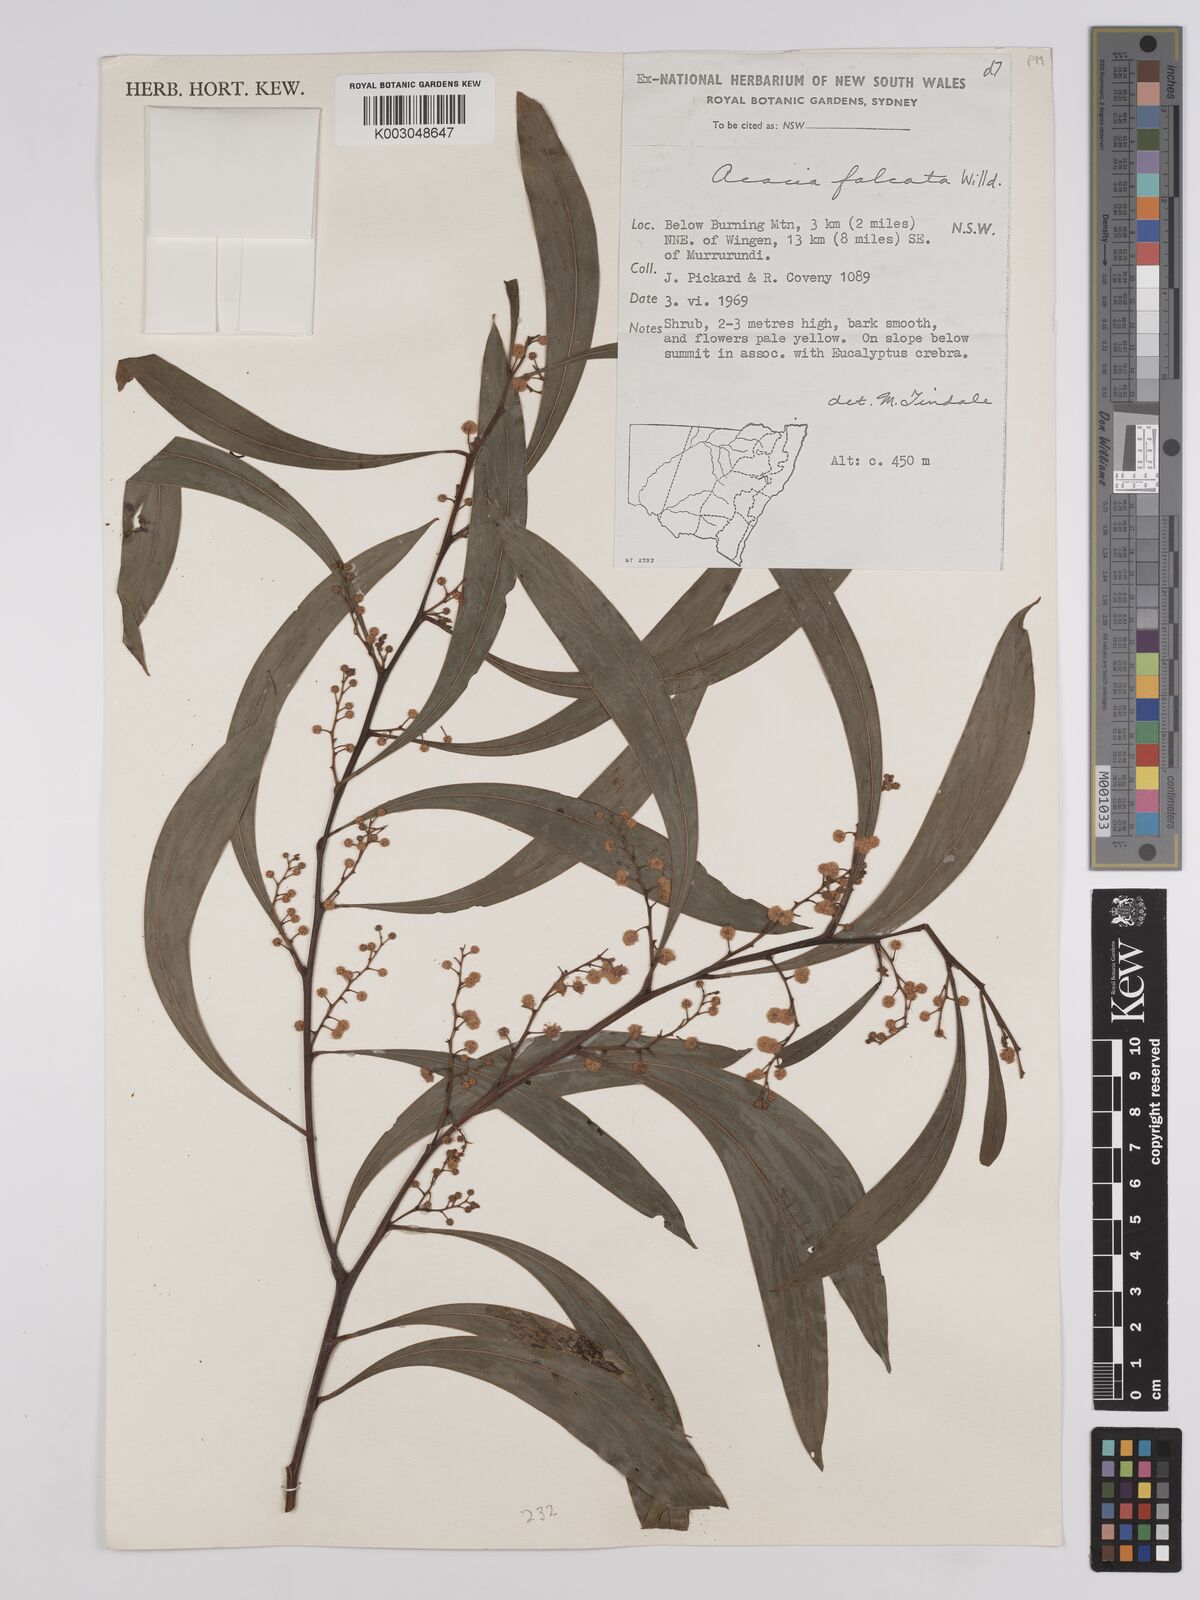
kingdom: Plantae
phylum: Tracheophyta
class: Magnoliopsida
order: Fabales
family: Fabaceae
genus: Acacia
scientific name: Acacia falcata
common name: Burra acacia
